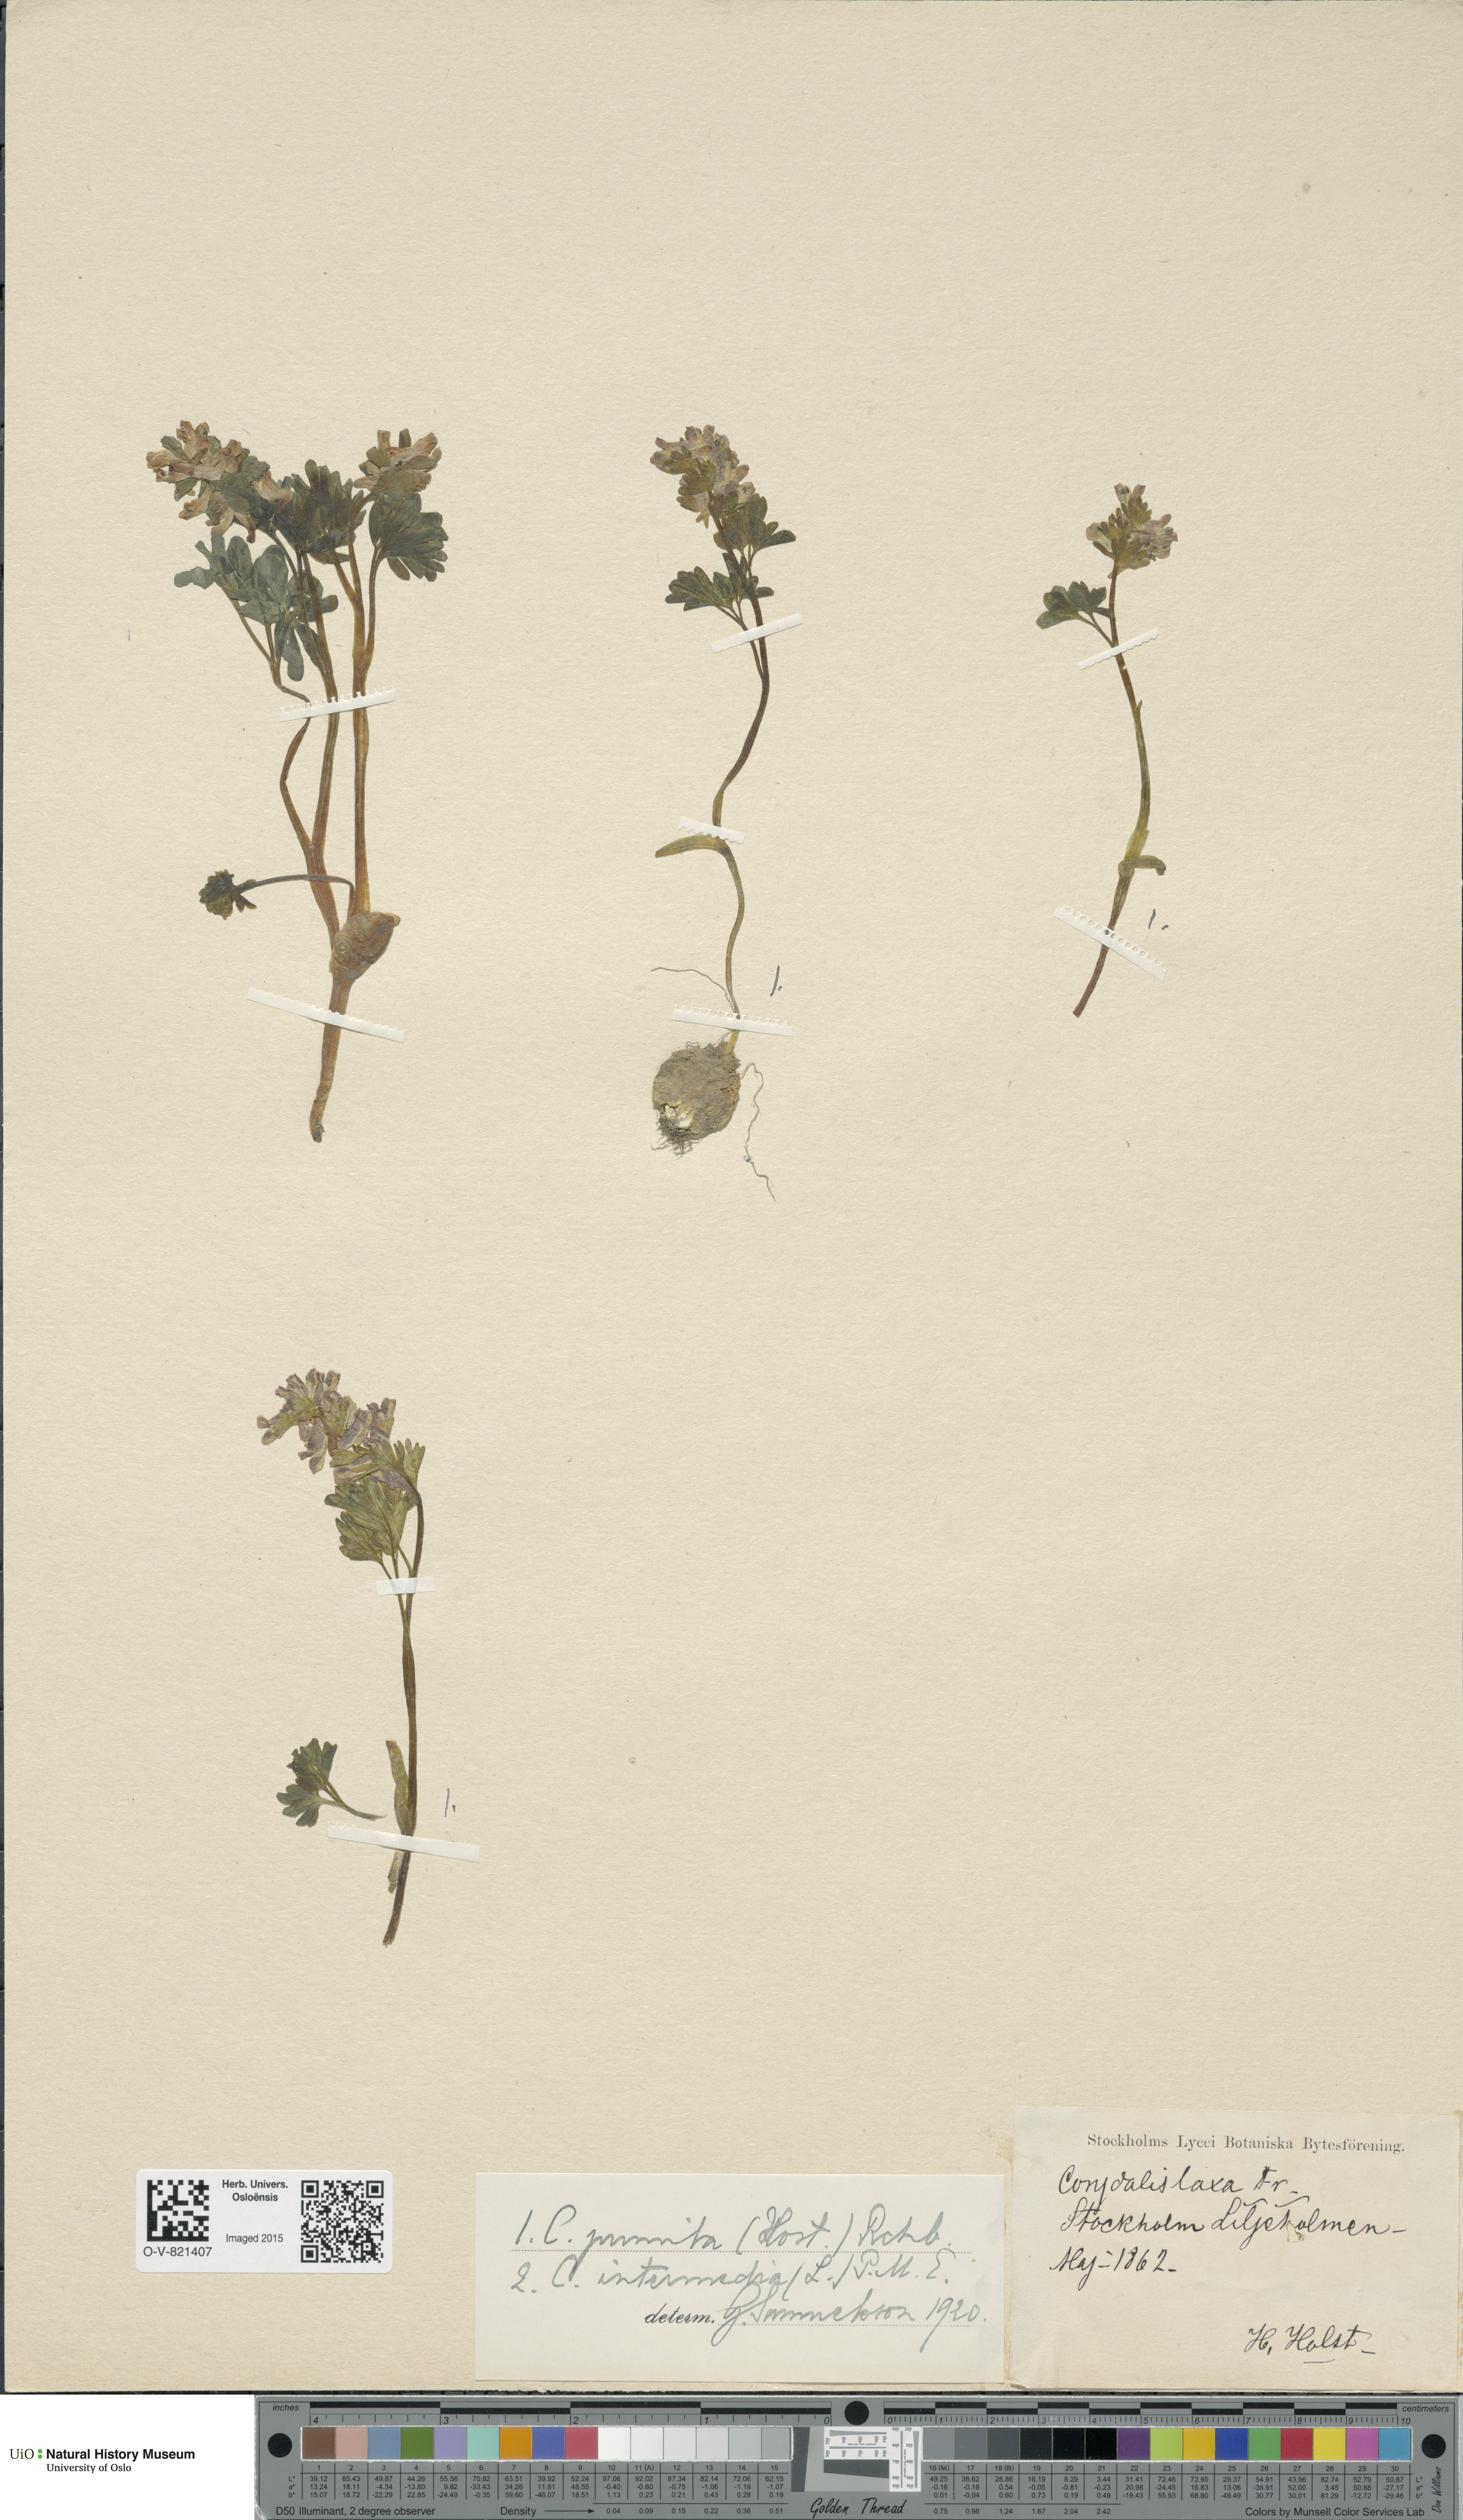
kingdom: Plantae
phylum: Tracheophyta
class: Magnoliopsida
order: Ranunculales
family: Papaveraceae
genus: Corydalis
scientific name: Corydalis pumila
